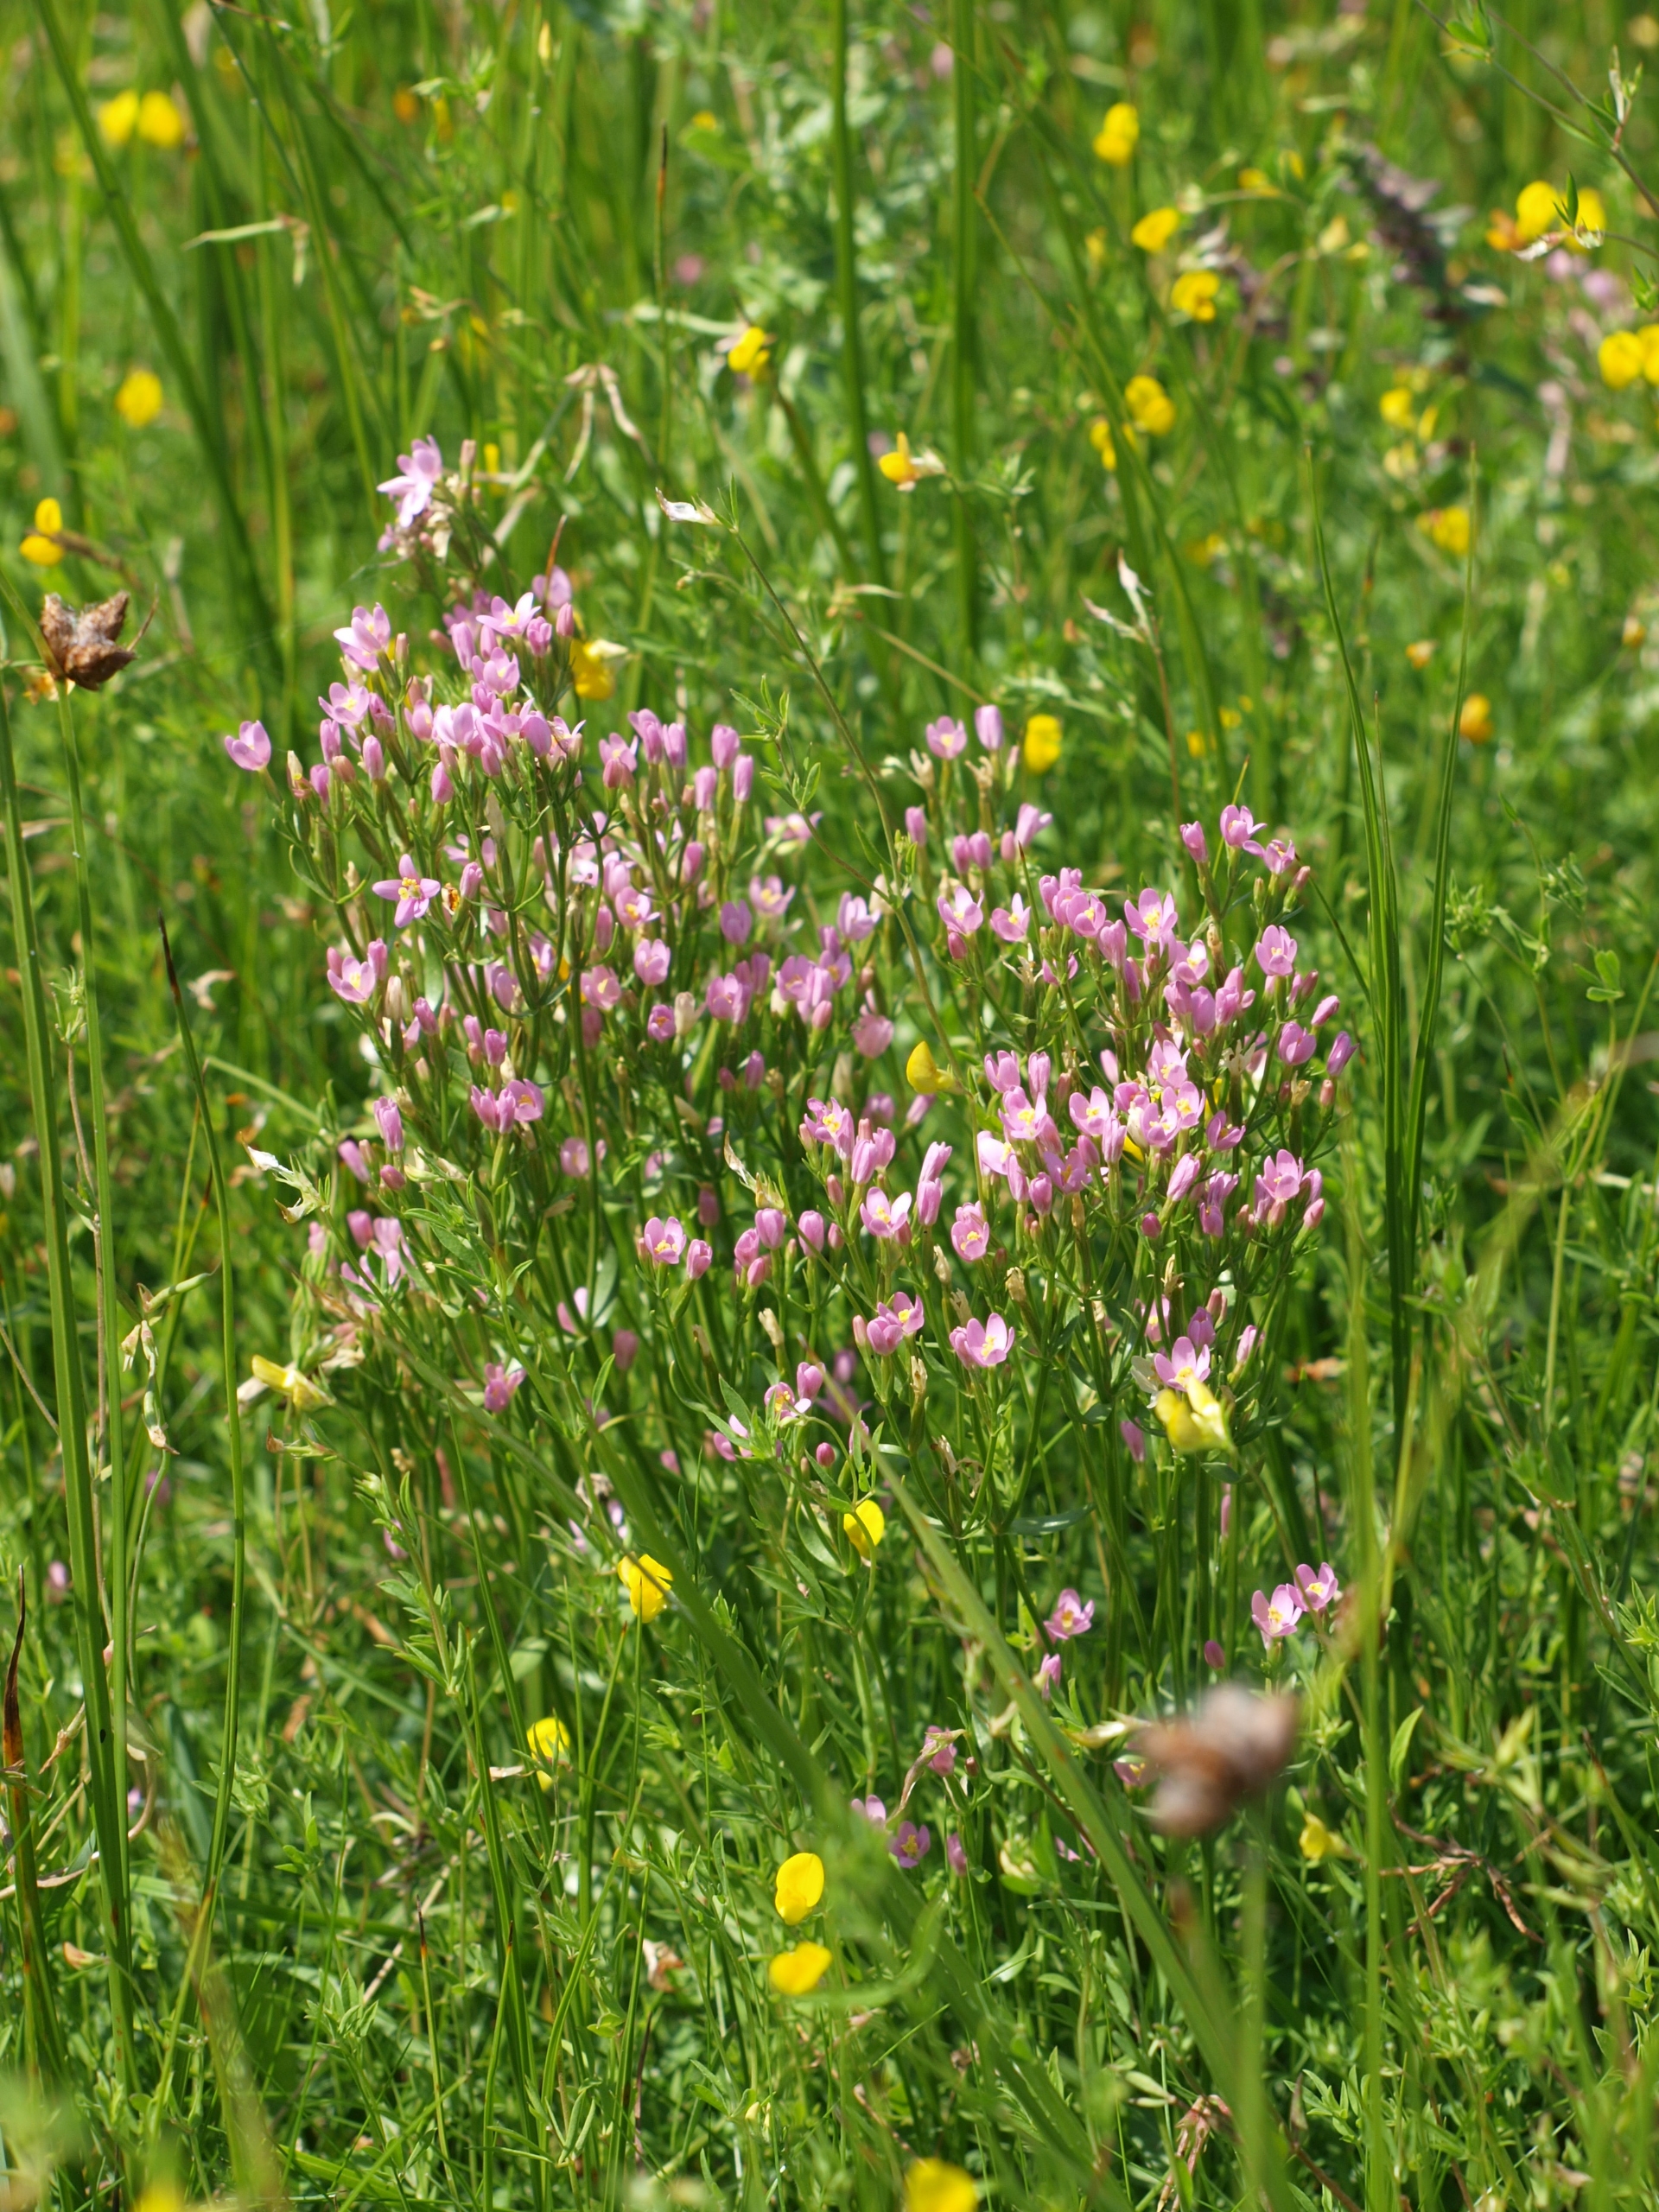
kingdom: Plantae
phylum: Tracheophyta
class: Magnoliopsida
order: Gentianales
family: Gentianaceae
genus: Centaurium
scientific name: Centaurium littorale
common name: Strand-tusindgylden
